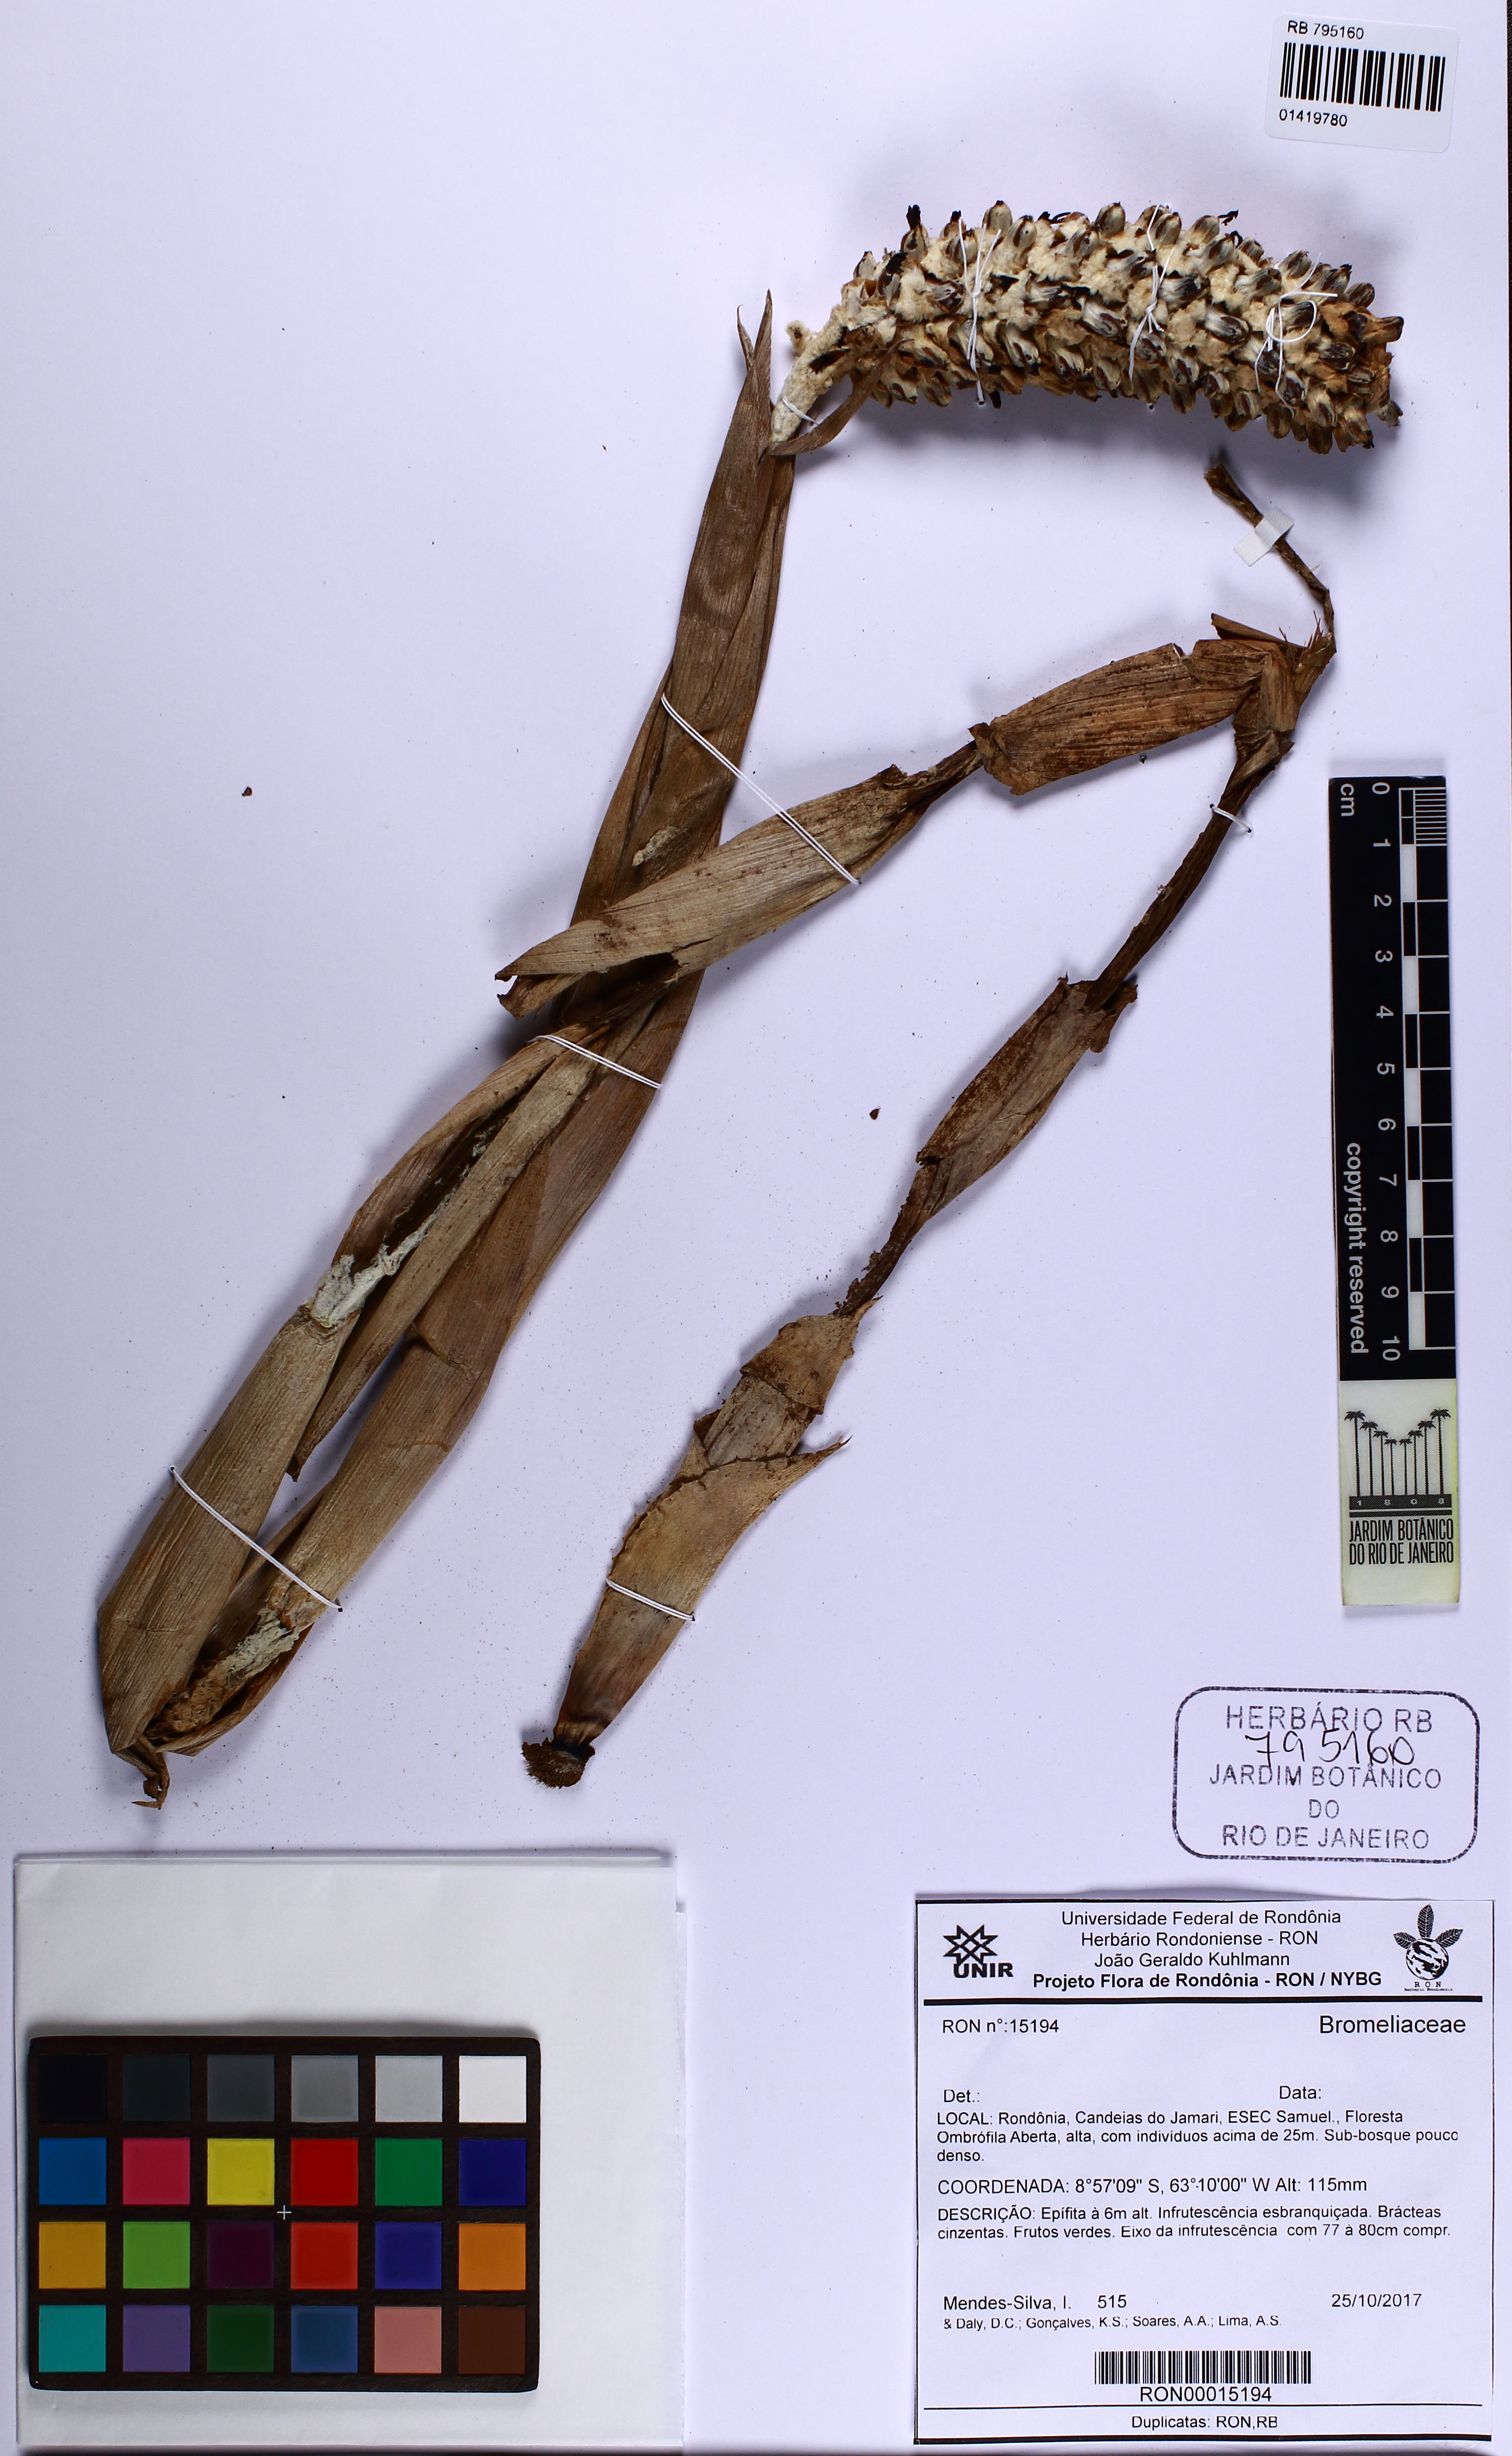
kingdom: Plantae
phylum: Tracheophyta
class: Liliopsida
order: Poales
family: Bromeliaceae
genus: Aechmea
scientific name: Aechmea bromeliifolia
